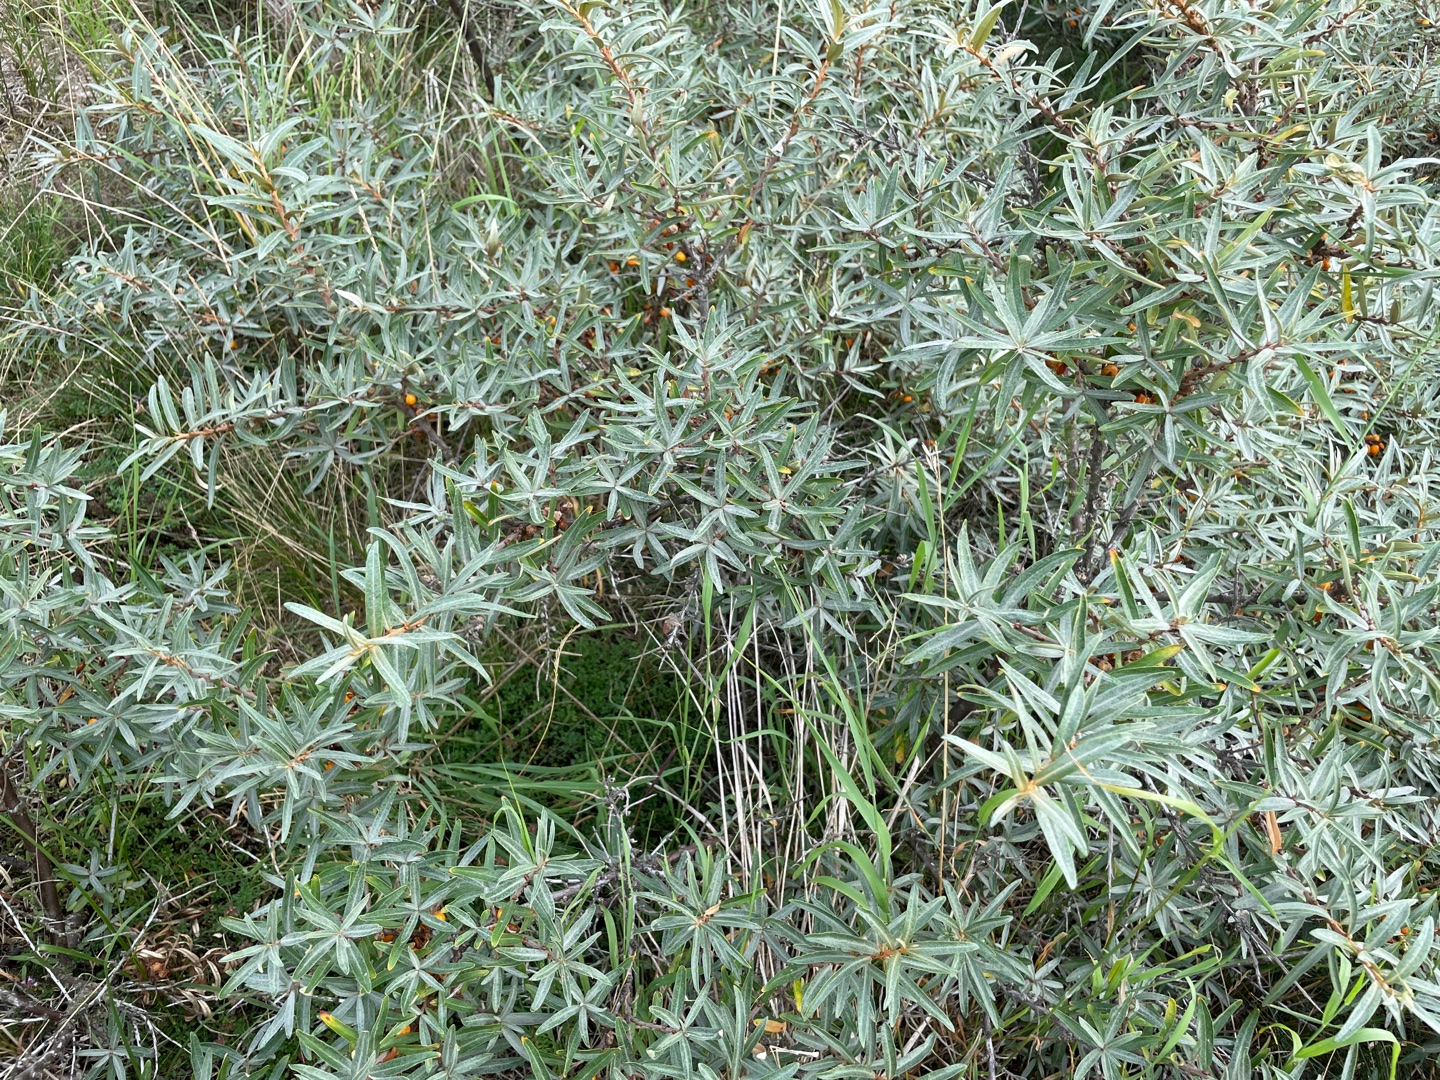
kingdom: Plantae
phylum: Tracheophyta
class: Magnoliopsida
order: Rosales
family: Elaeagnaceae
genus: Hippophae
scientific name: Hippophae rhamnoides
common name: Havtorn
